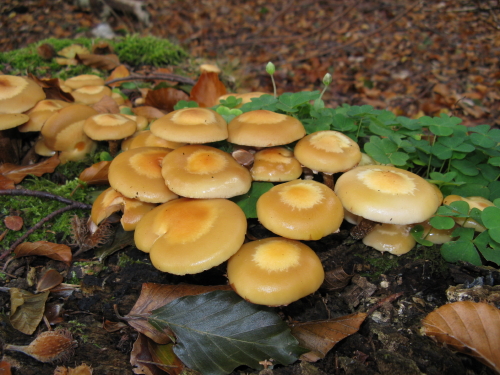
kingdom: Fungi
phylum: Basidiomycota
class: Agaricomycetes
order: Agaricales
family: Strophariaceae
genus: Kuehneromyces
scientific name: Kuehneromyces mutabilis
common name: foranderlig skælhat
